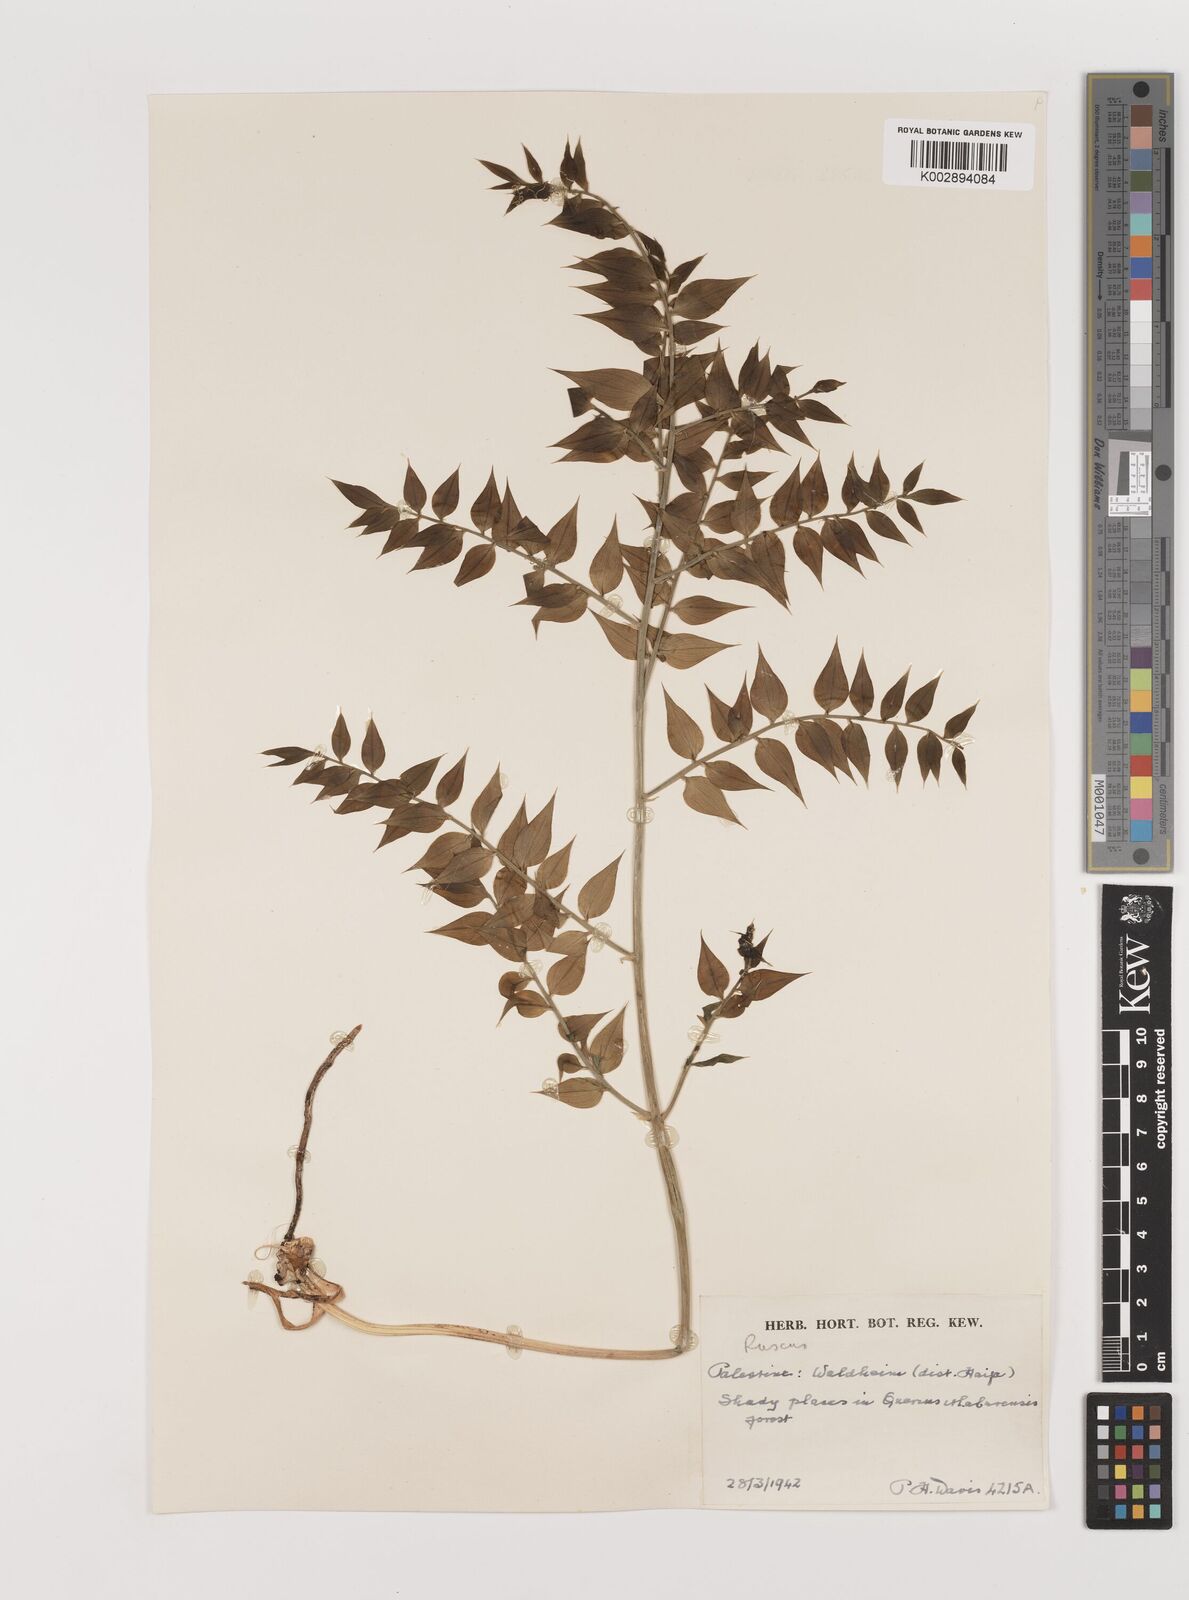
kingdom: Plantae
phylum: Tracheophyta
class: Liliopsida
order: Asparagales
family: Asparagaceae
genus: Ruscus
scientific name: Ruscus aculeatus
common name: Butcher's-broom
